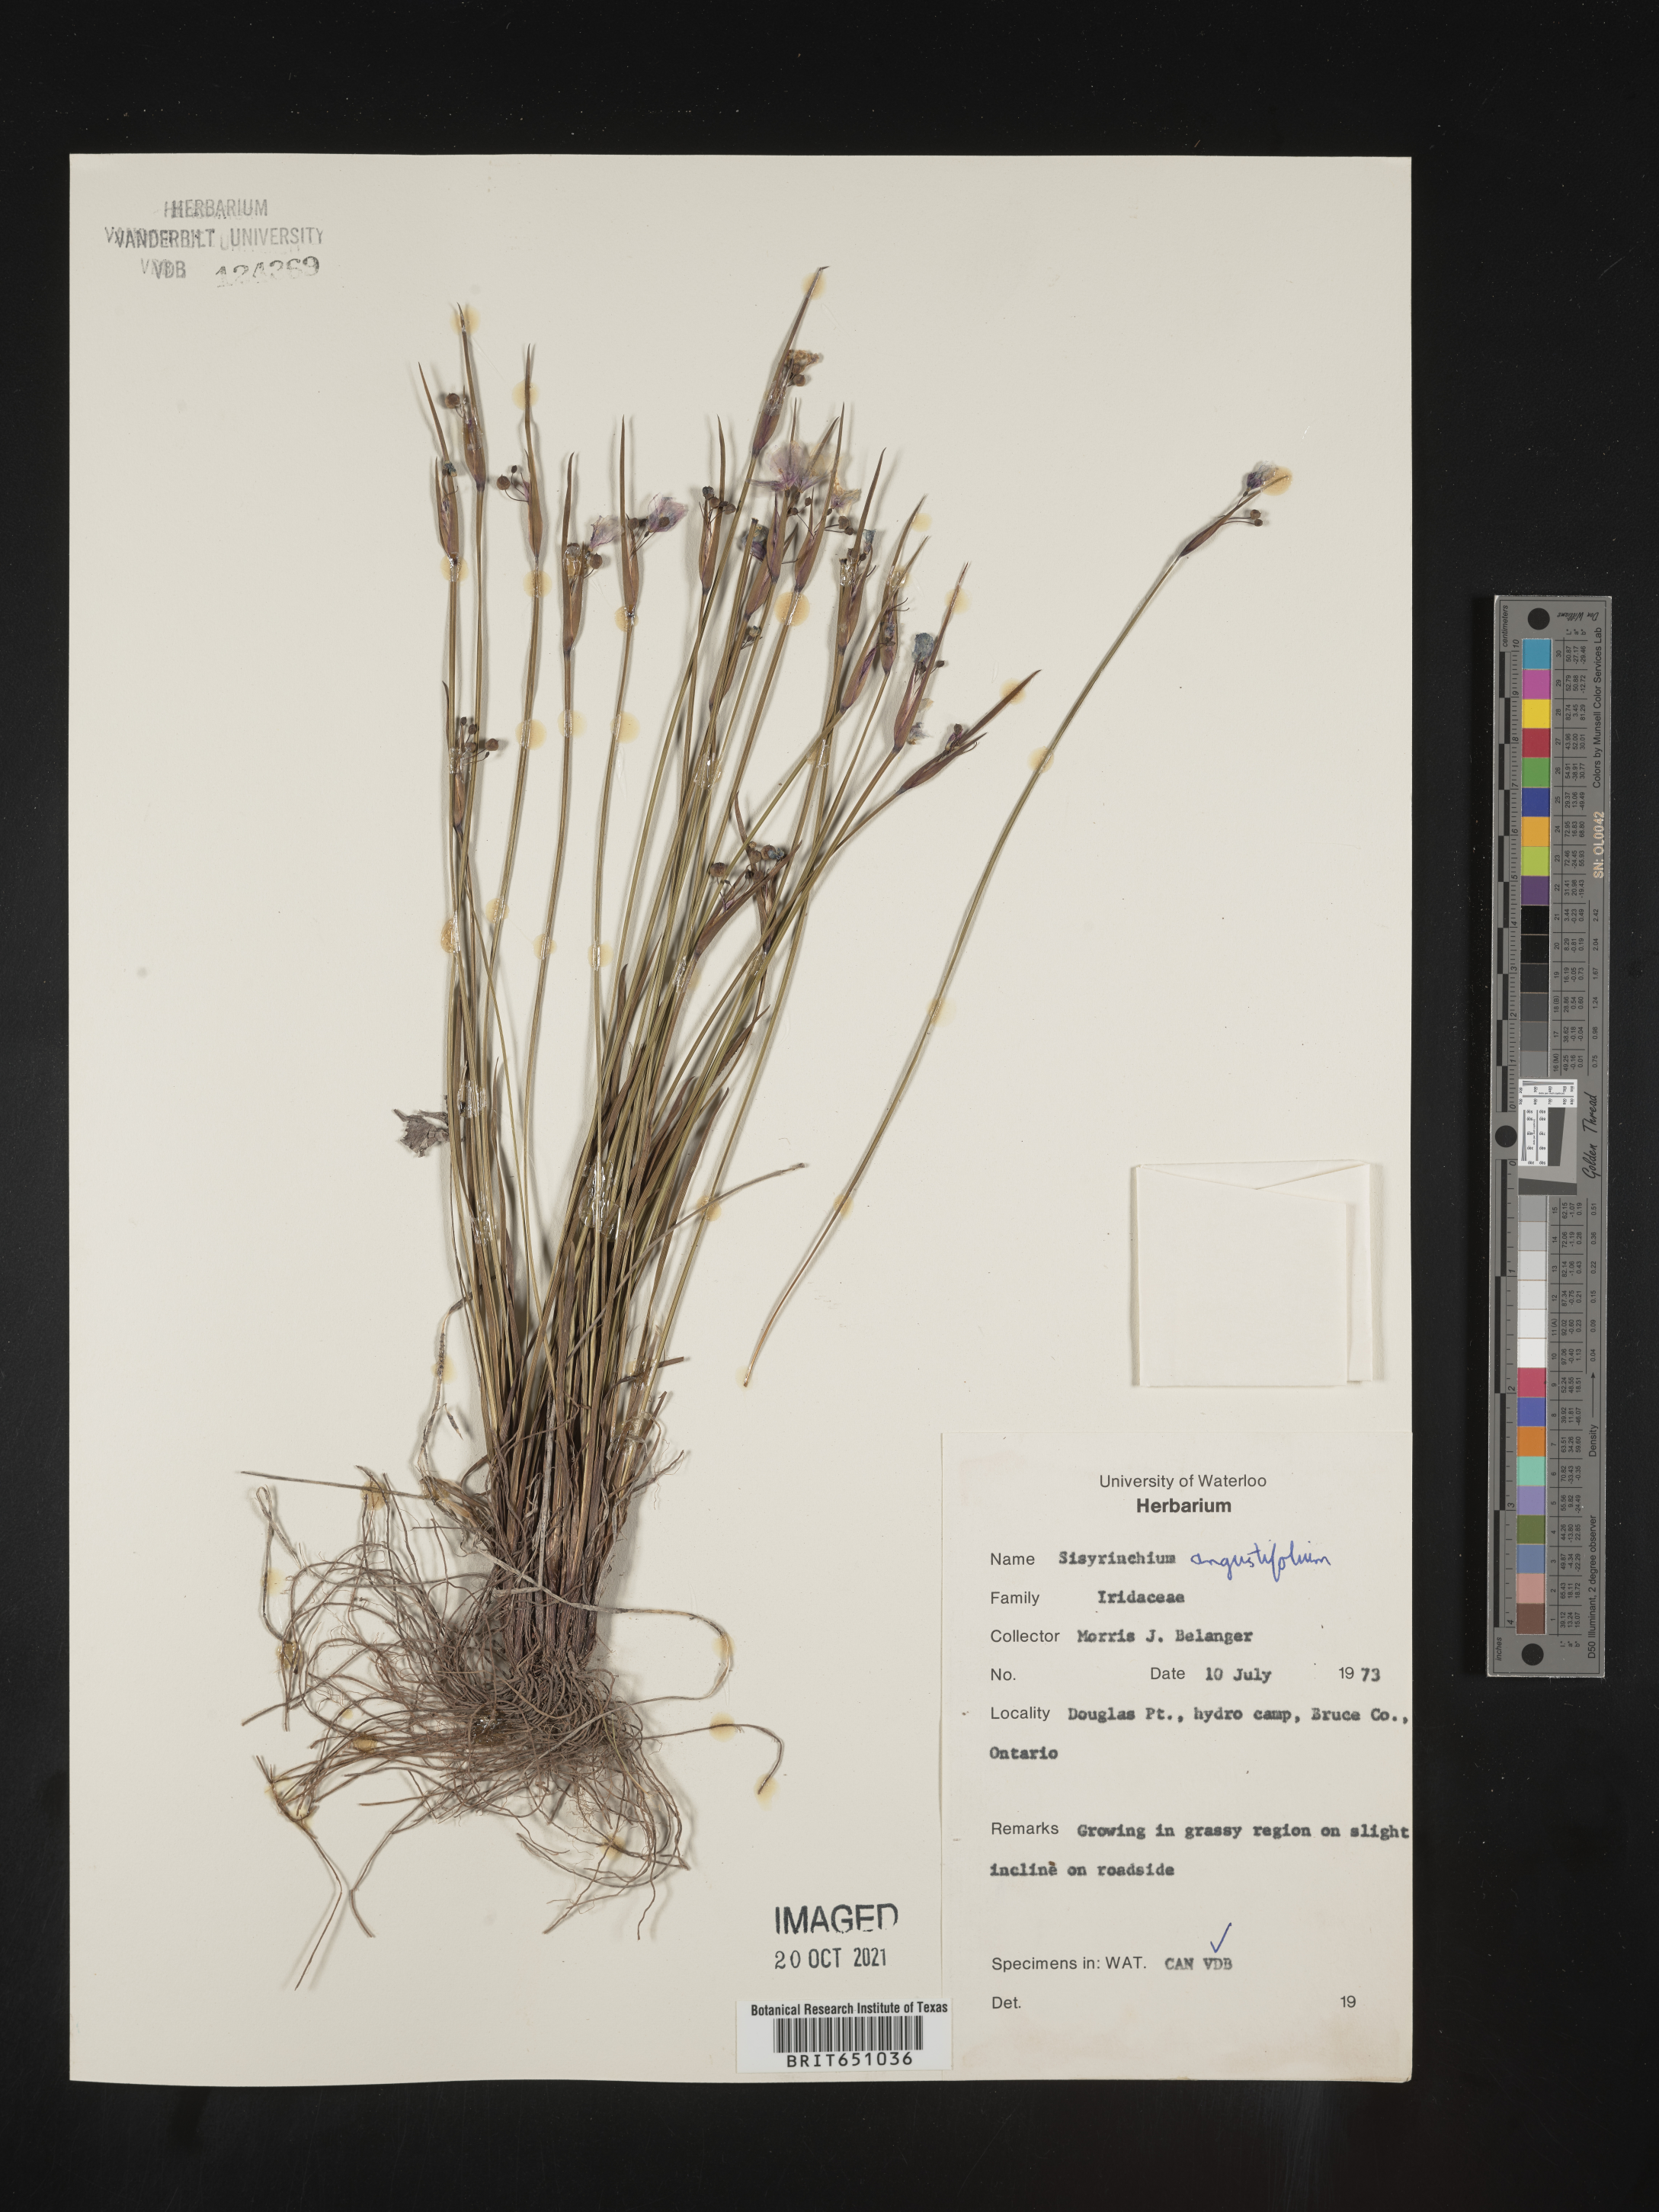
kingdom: Plantae
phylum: Tracheophyta
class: Liliopsida
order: Asparagales
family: Iridaceae
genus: Sisyrinchium
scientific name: Sisyrinchium
